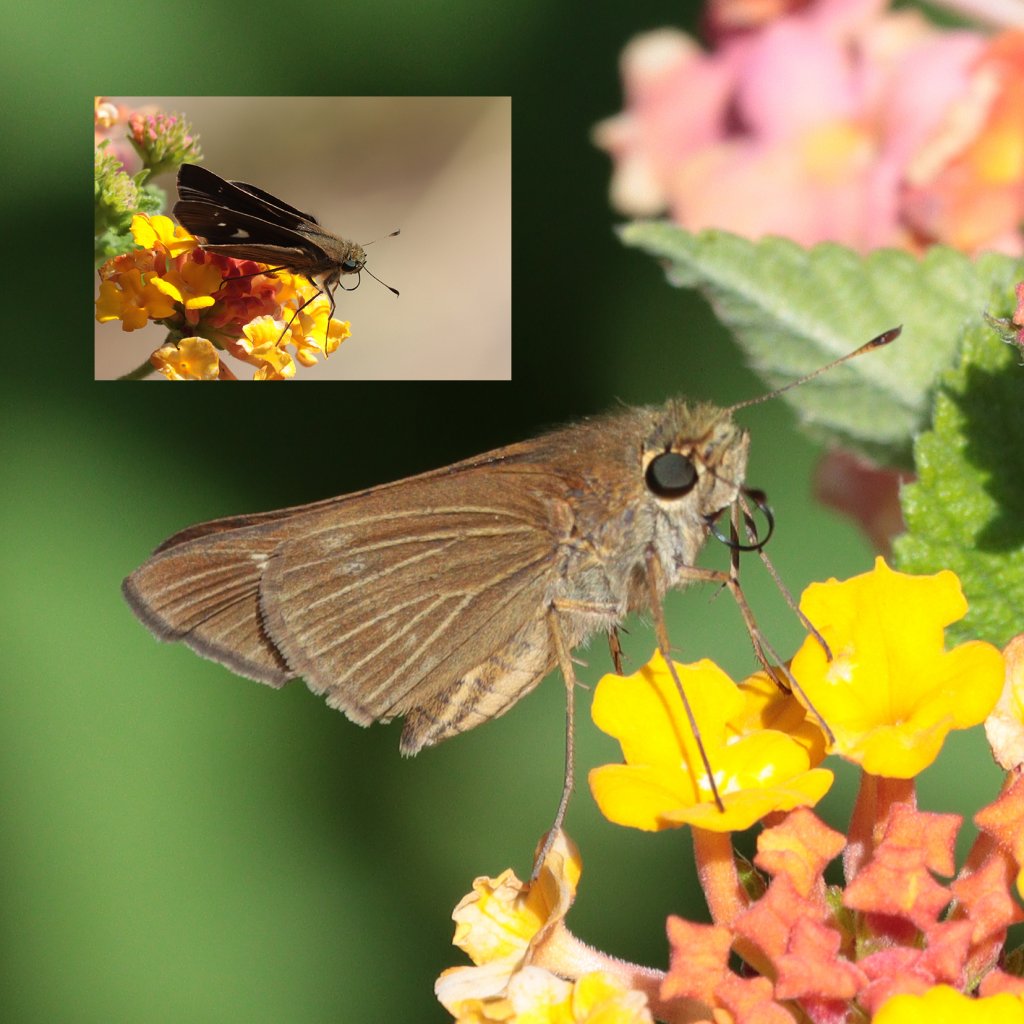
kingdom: Animalia
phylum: Arthropoda
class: Insecta
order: Lepidoptera
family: Hesperiidae
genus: Panoquina
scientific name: Panoquina ocola
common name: Ocola Skipper
